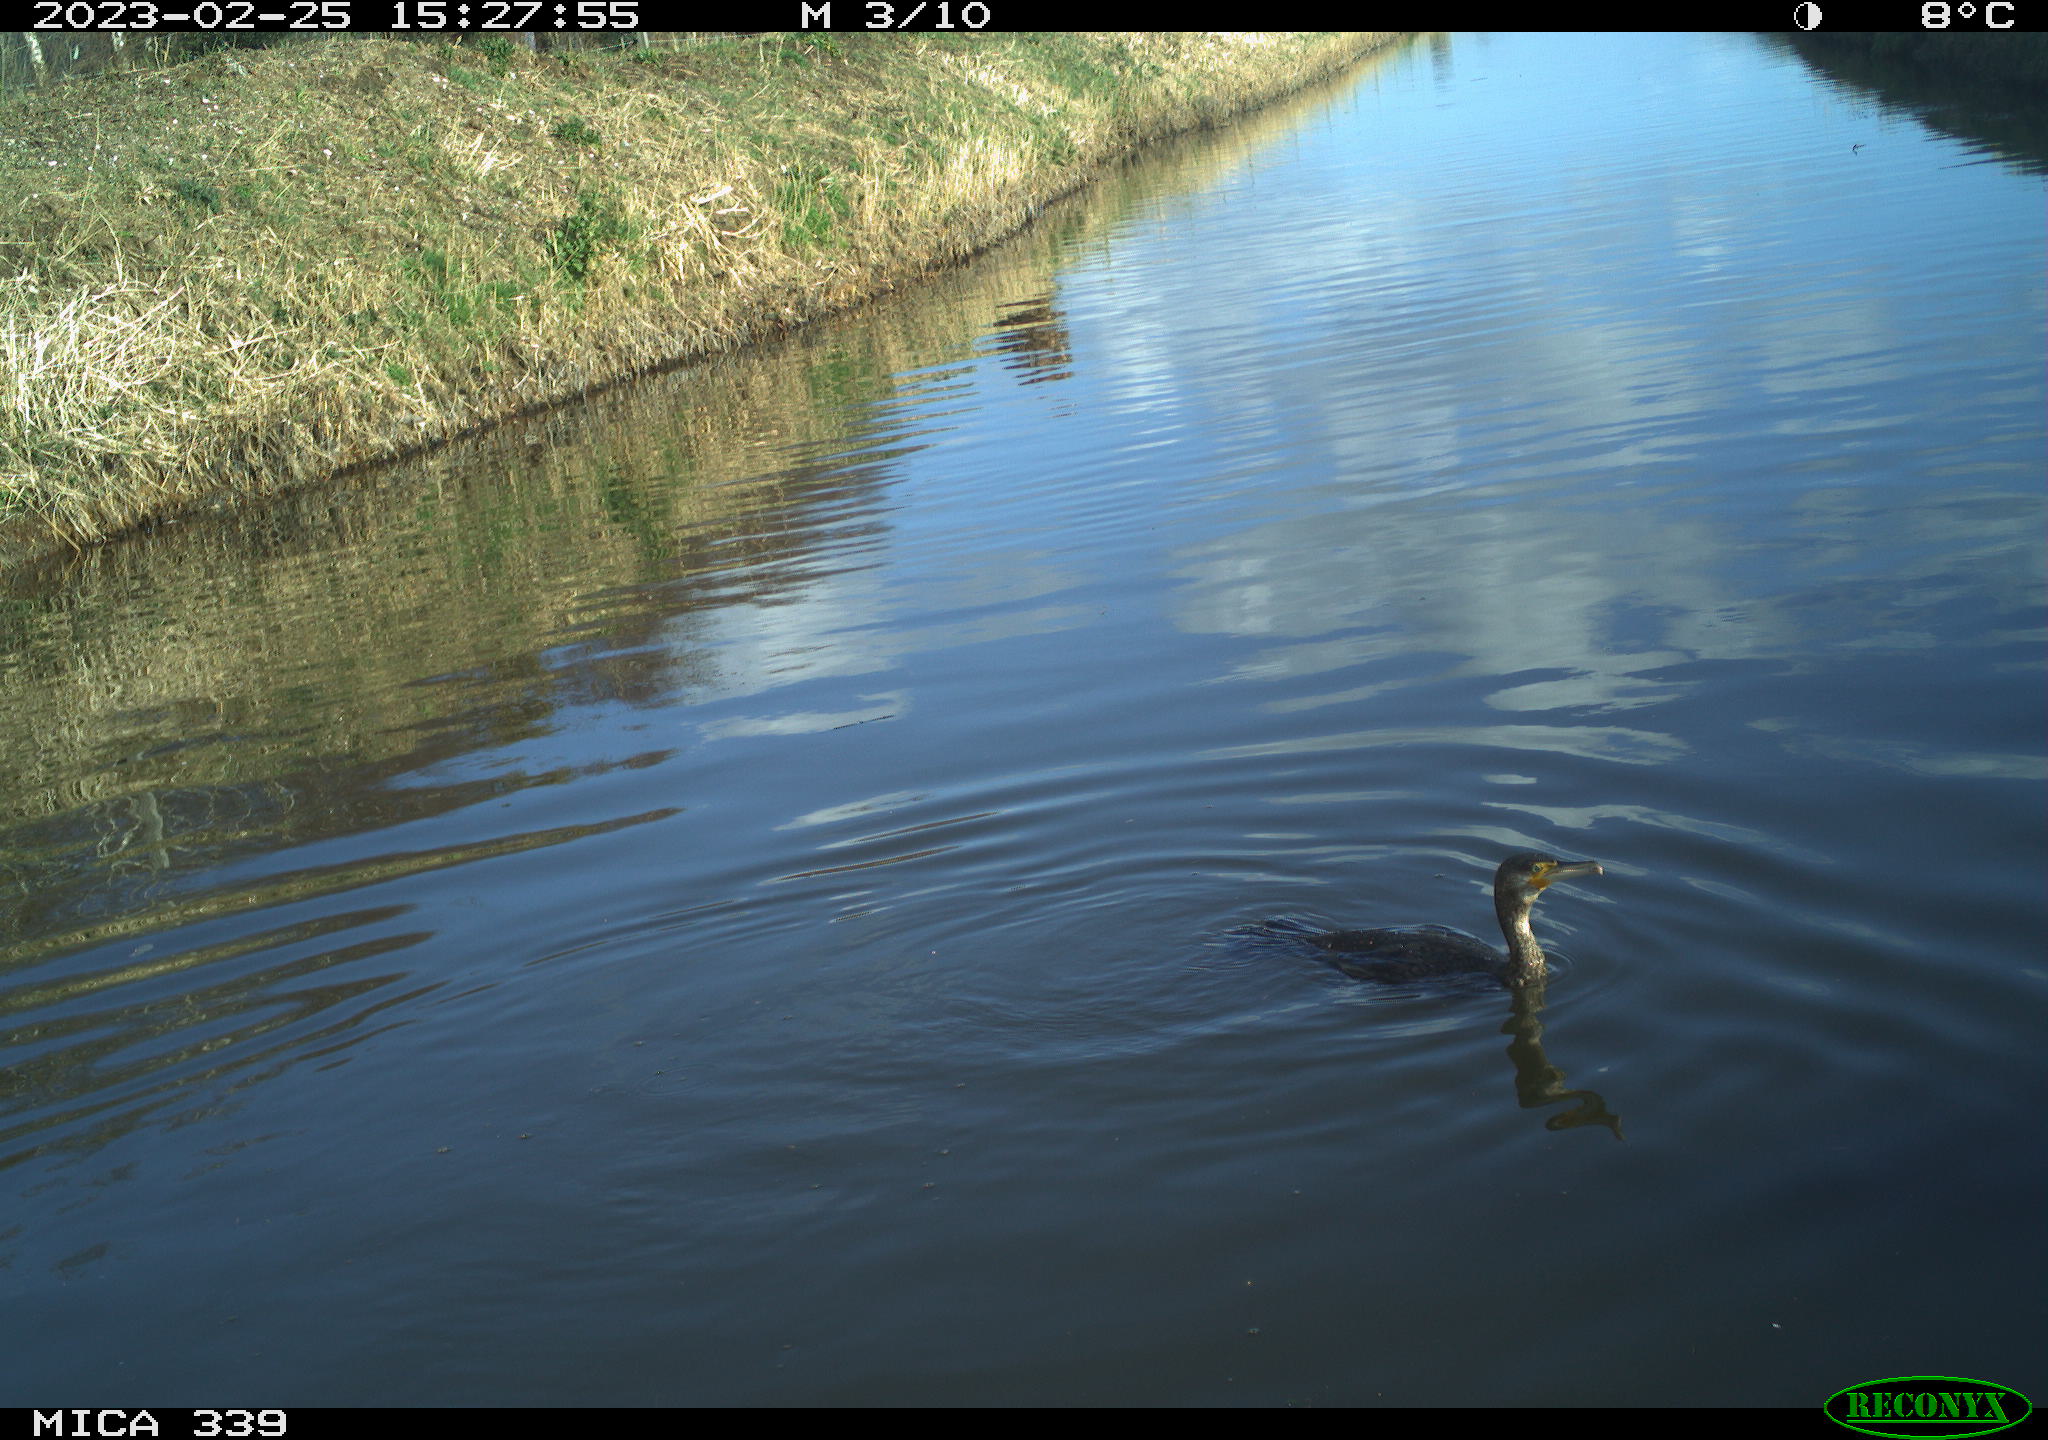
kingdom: Animalia
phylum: Chordata
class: Aves
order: Suliformes
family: Phalacrocoracidae
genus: Phalacrocorax
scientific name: Phalacrocorax carbo
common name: Great cormorant
